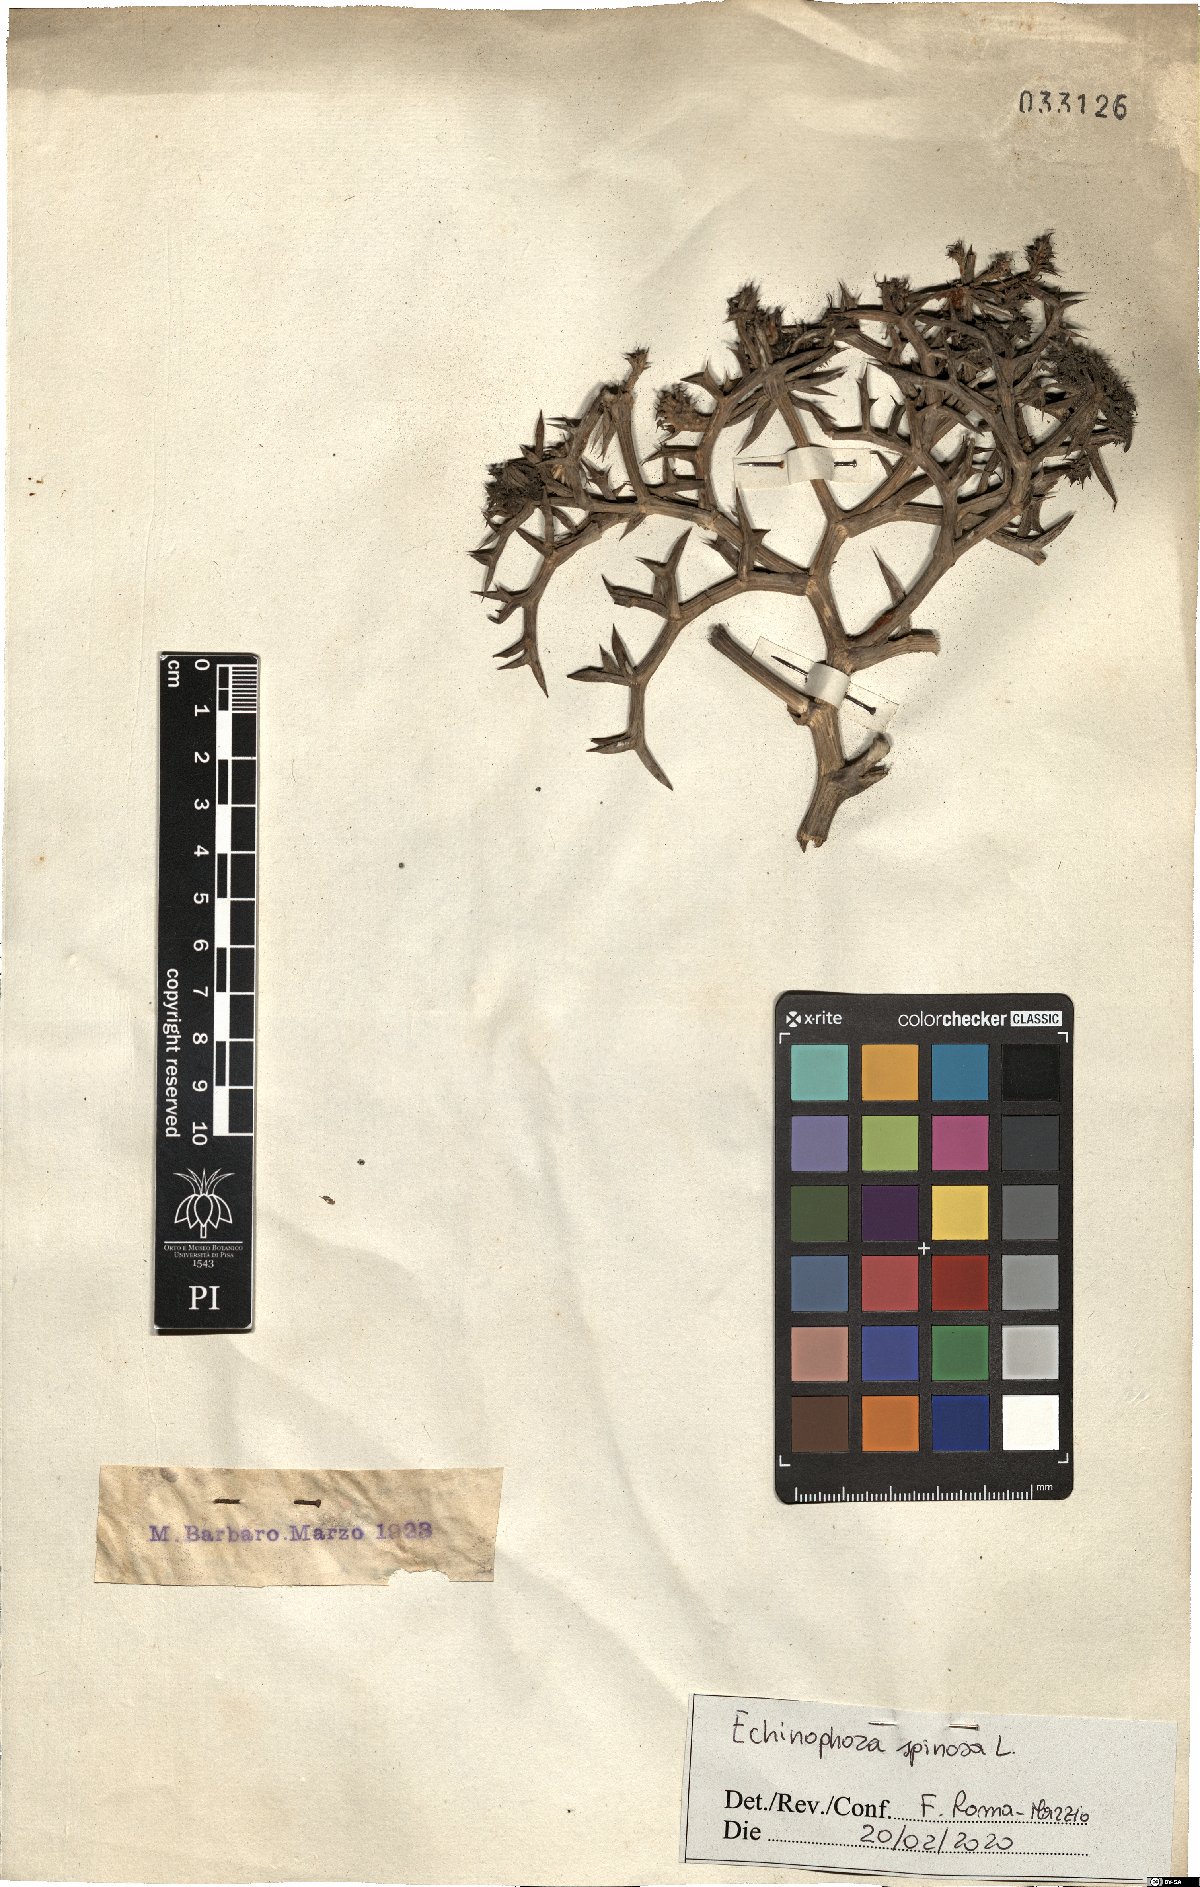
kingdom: Plantae
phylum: Tracheophyta
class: Magnoliopsida
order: Apiales
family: Apiaceae
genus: Echinophora
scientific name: Echinophora spinosa
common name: Prickly samphire
